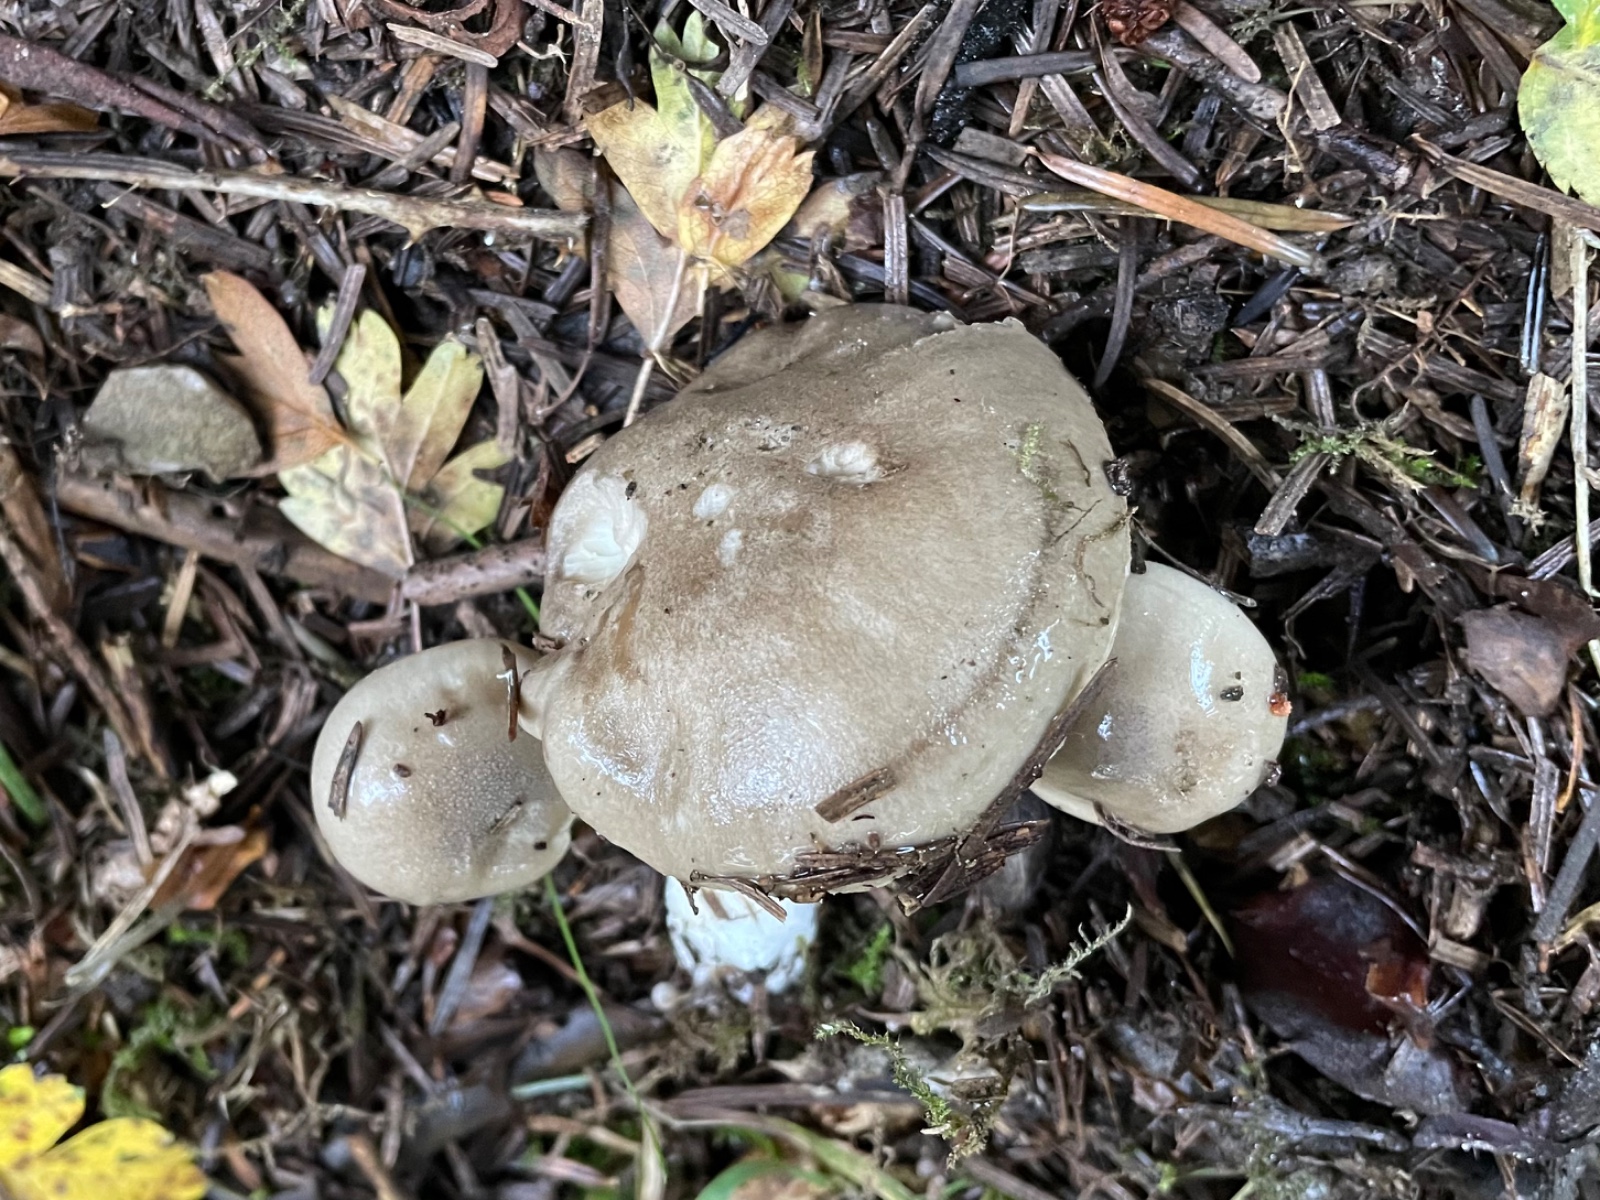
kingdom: Fungi
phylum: Basidiomycota
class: Agaricomycetes
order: Agaricales
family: Hygrophoraceae
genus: Hygrophorus
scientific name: Hygrophorus agathosmus
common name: vellugtende sneglehat
